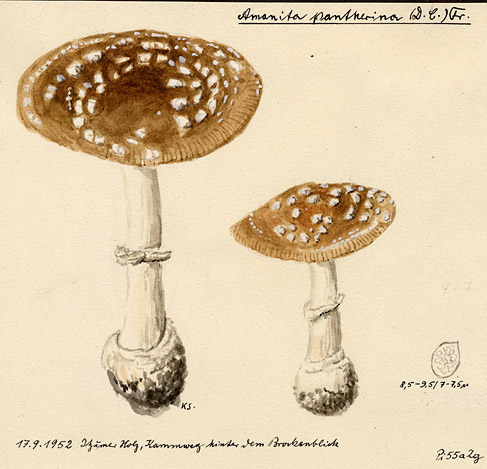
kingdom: Fungi
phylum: Basidiomycota
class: Agaricomycetes
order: Agaricales
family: Amanitaceae
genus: Amanita
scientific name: Amanita pantherina
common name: Panthercap
